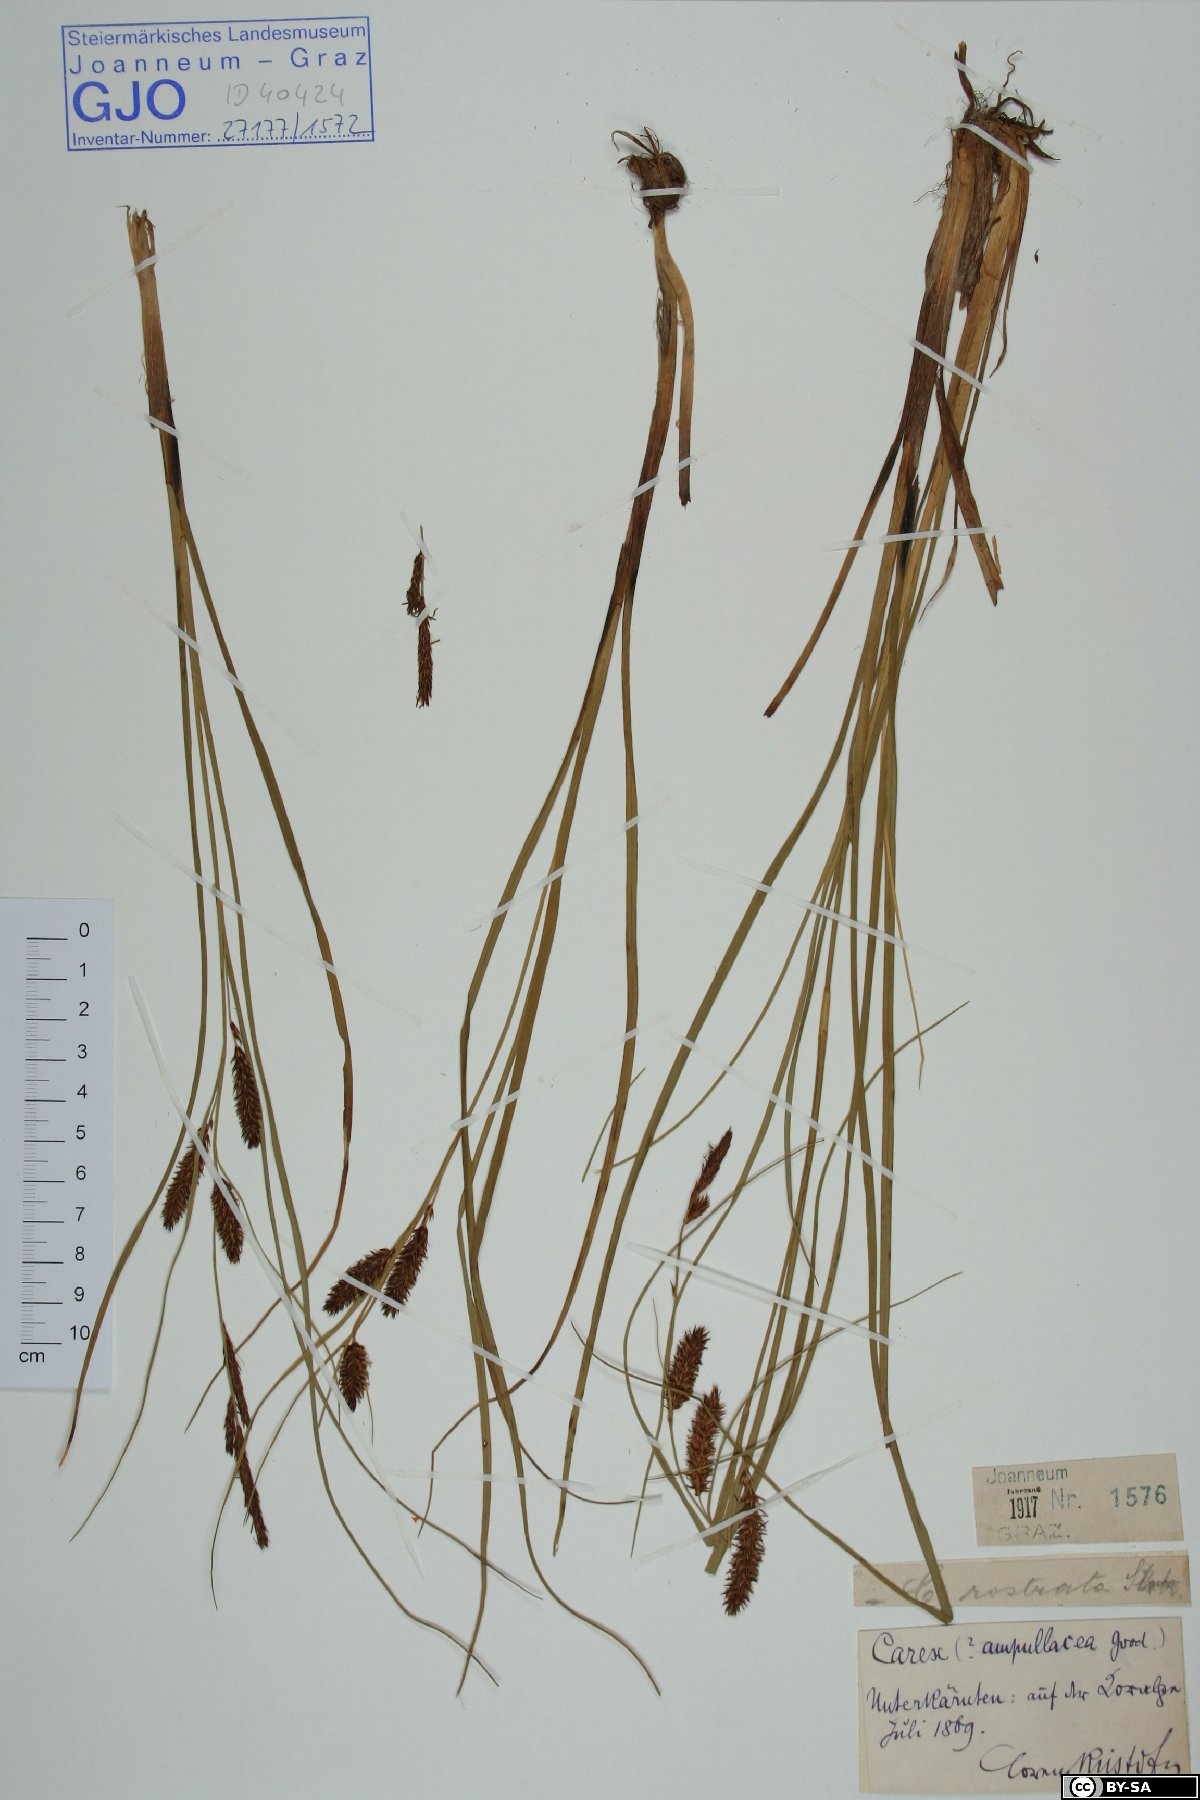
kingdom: Plantae
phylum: Tracheophyta
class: Liliopsida
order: Poales
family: Cyperaceae
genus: Carex
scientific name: Carex rostrata
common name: Bottle sedge
